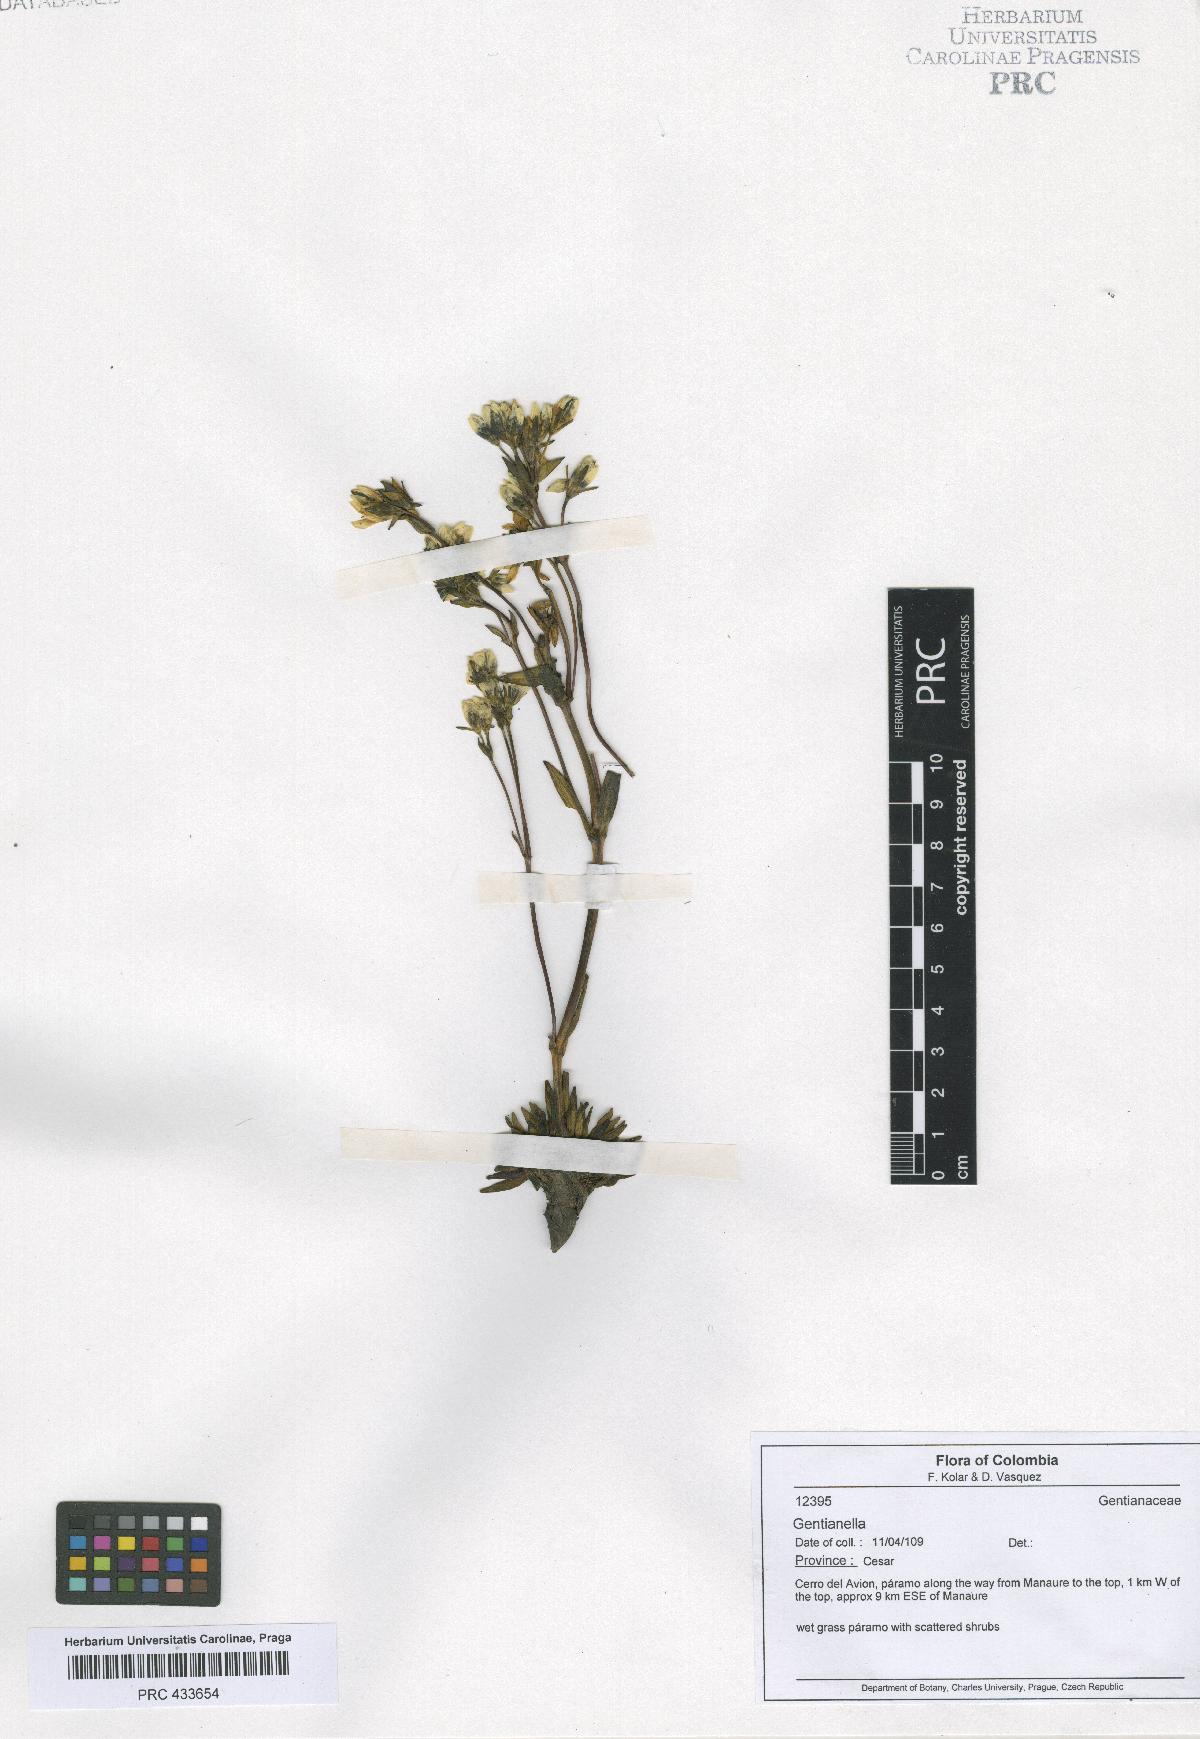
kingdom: Plantae
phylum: Tracheophyta
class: Magnoliopsida
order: Gentianales
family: Gentianaceae
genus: Gentianella
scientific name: Gentianella
